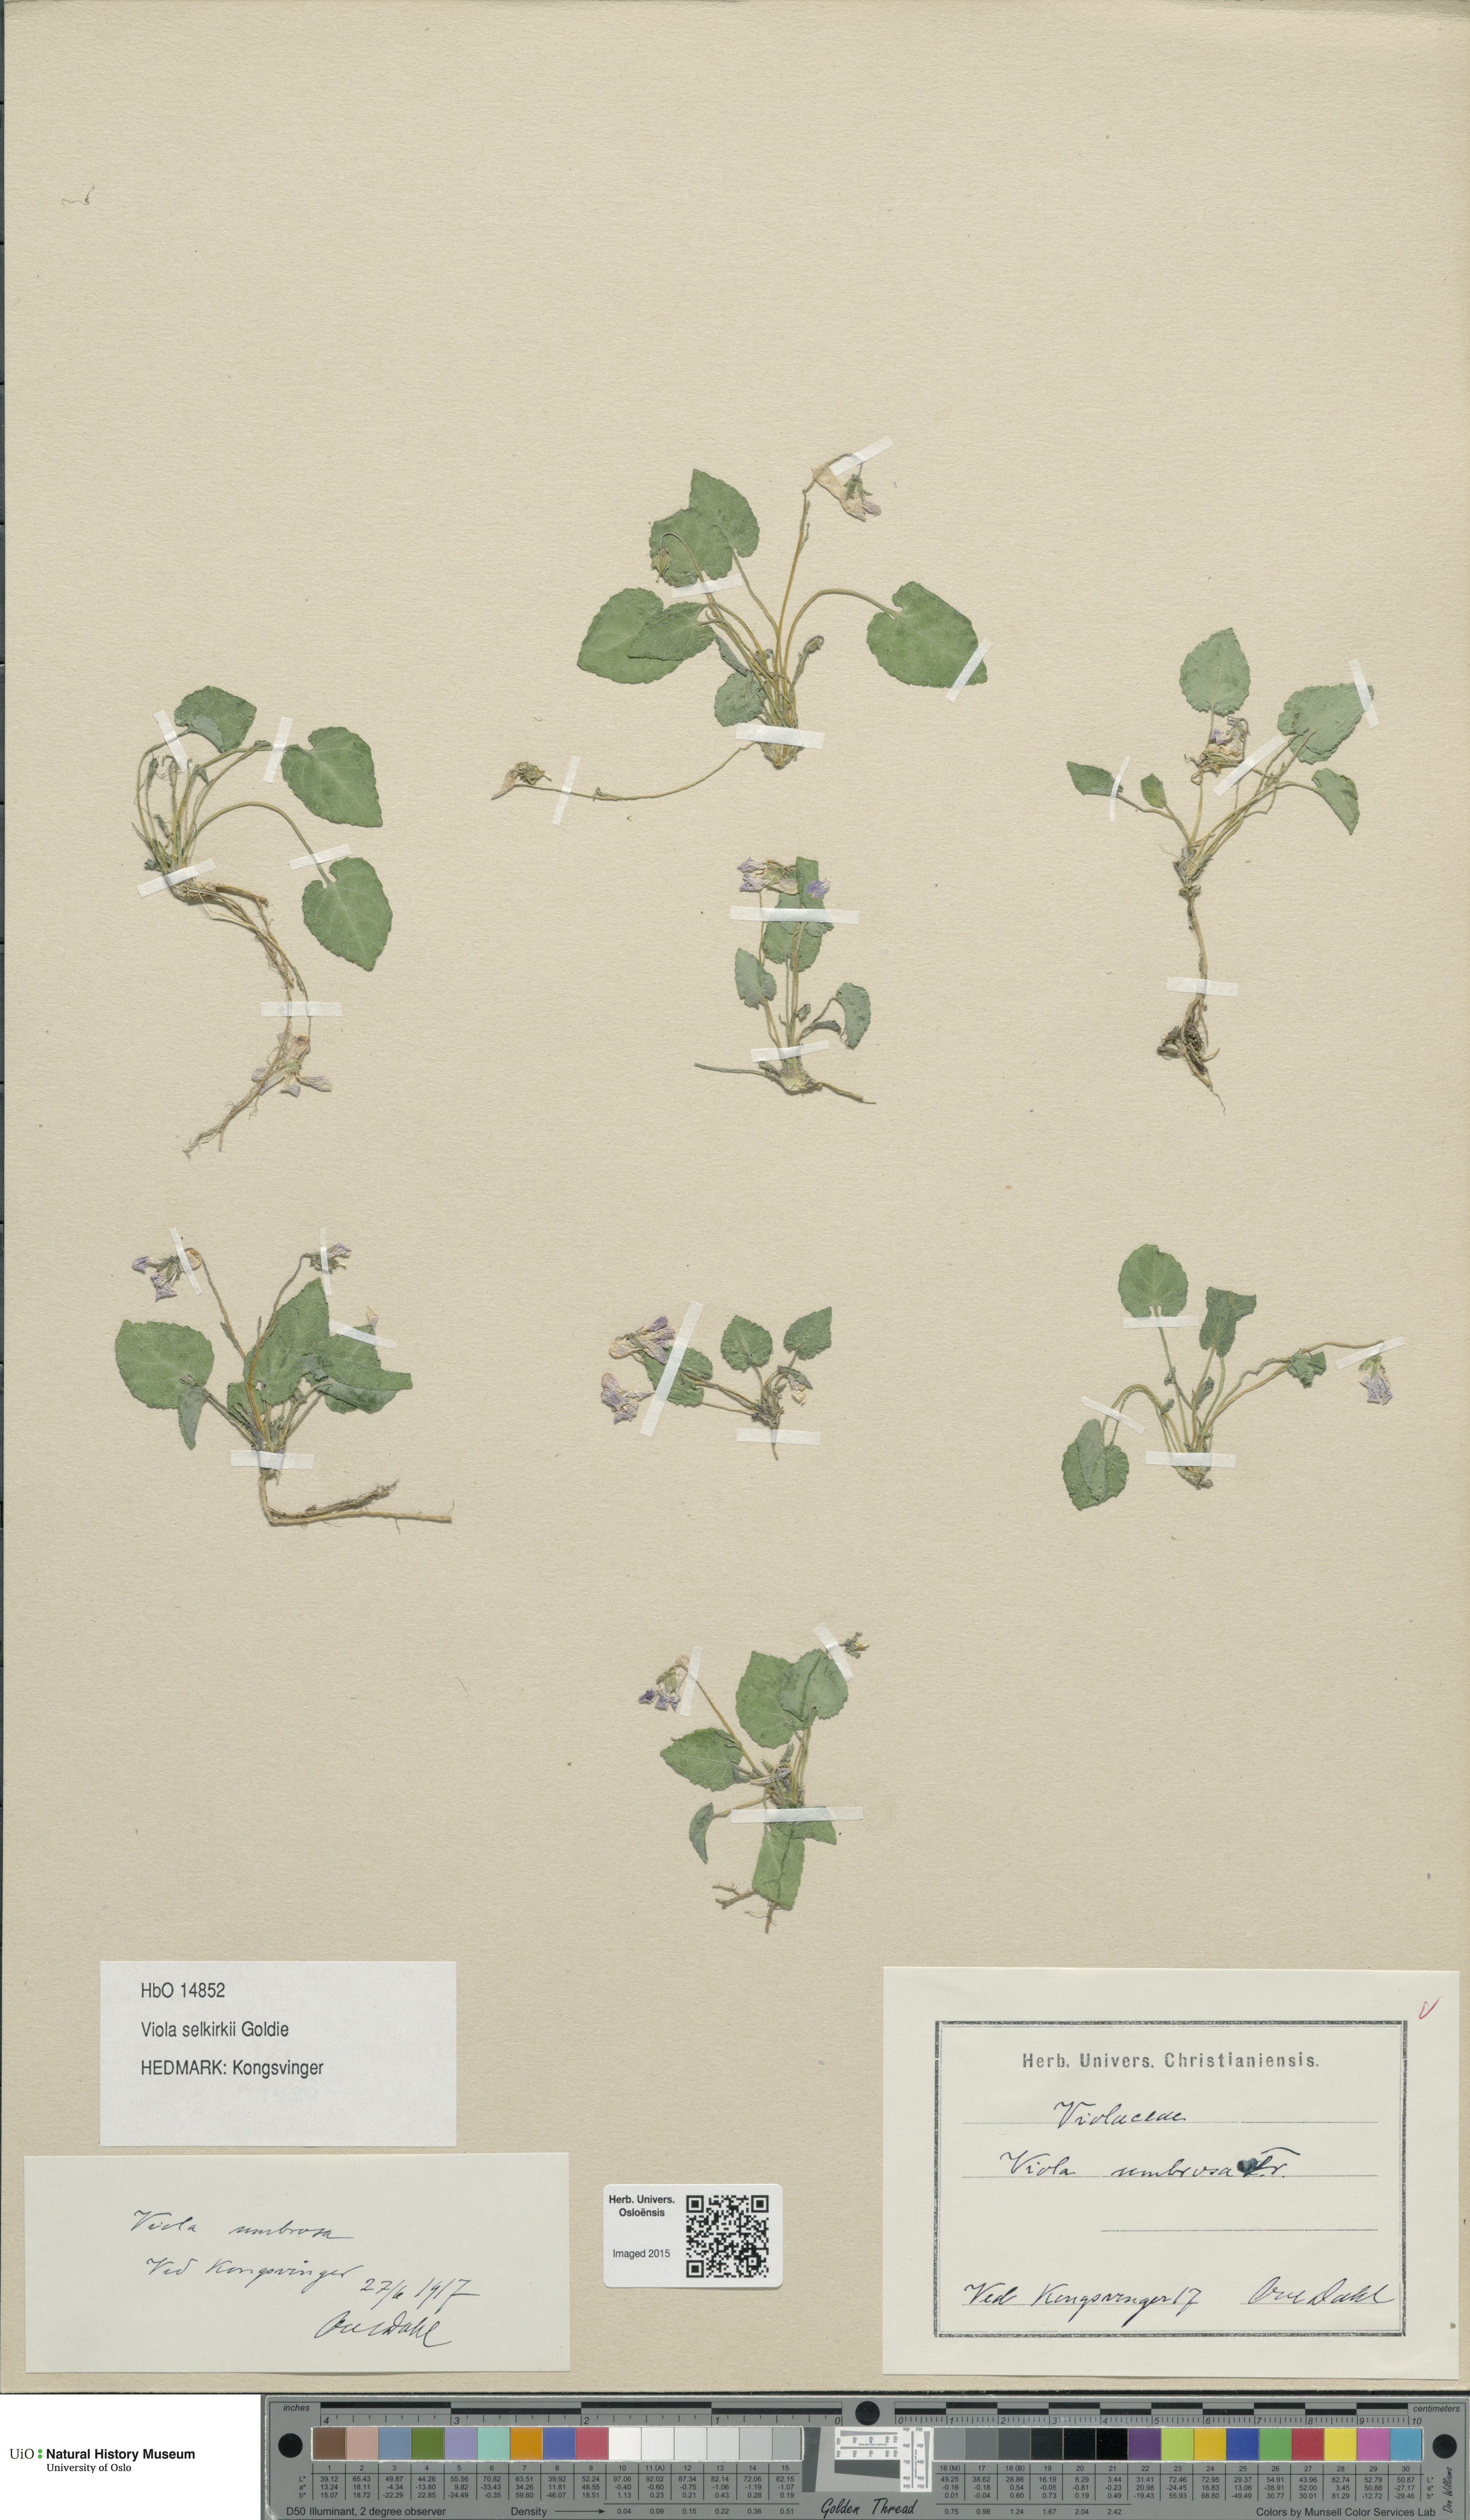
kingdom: Plantae
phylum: Tracheophyta
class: Magnoliopsida
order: Malpighiales
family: Violaceae
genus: Viola
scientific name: Viola selkirkii
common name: Selkirk's violet
